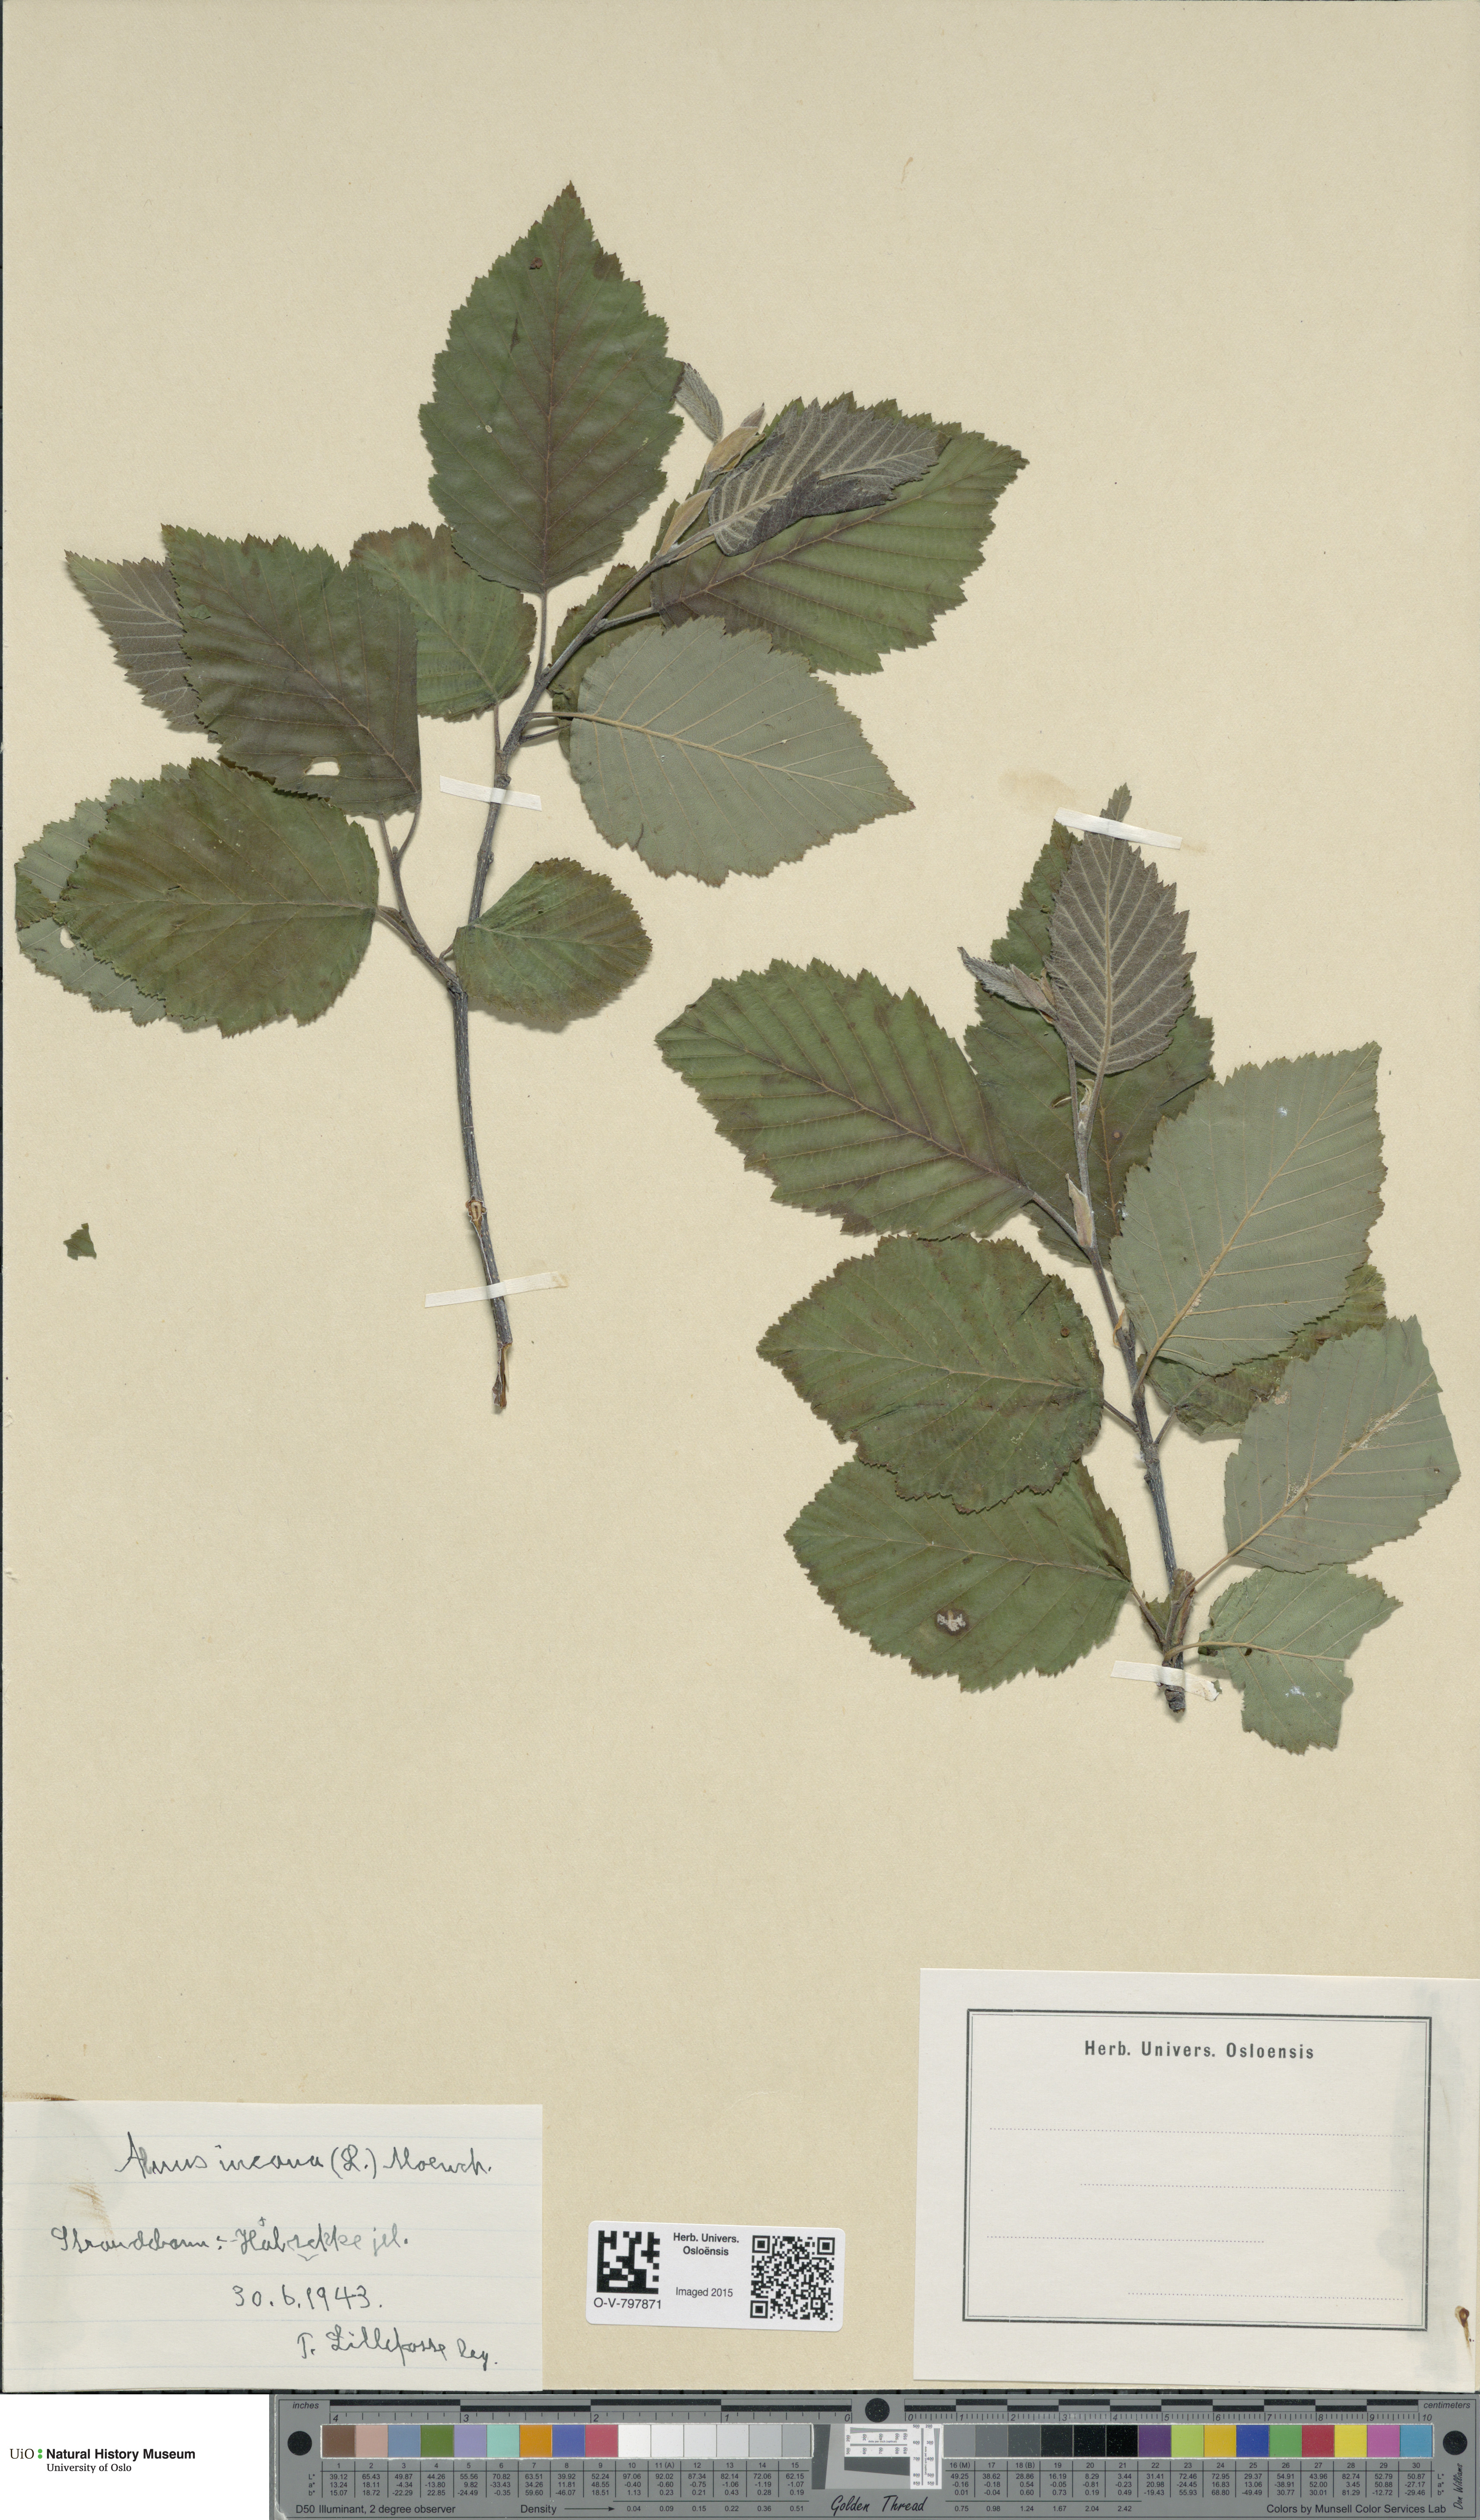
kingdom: Plantae
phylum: Tracheophyta
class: Magnoliopsida
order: Fagales
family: Betulaceae
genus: Alnus
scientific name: Alnus incana
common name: Grey alder
